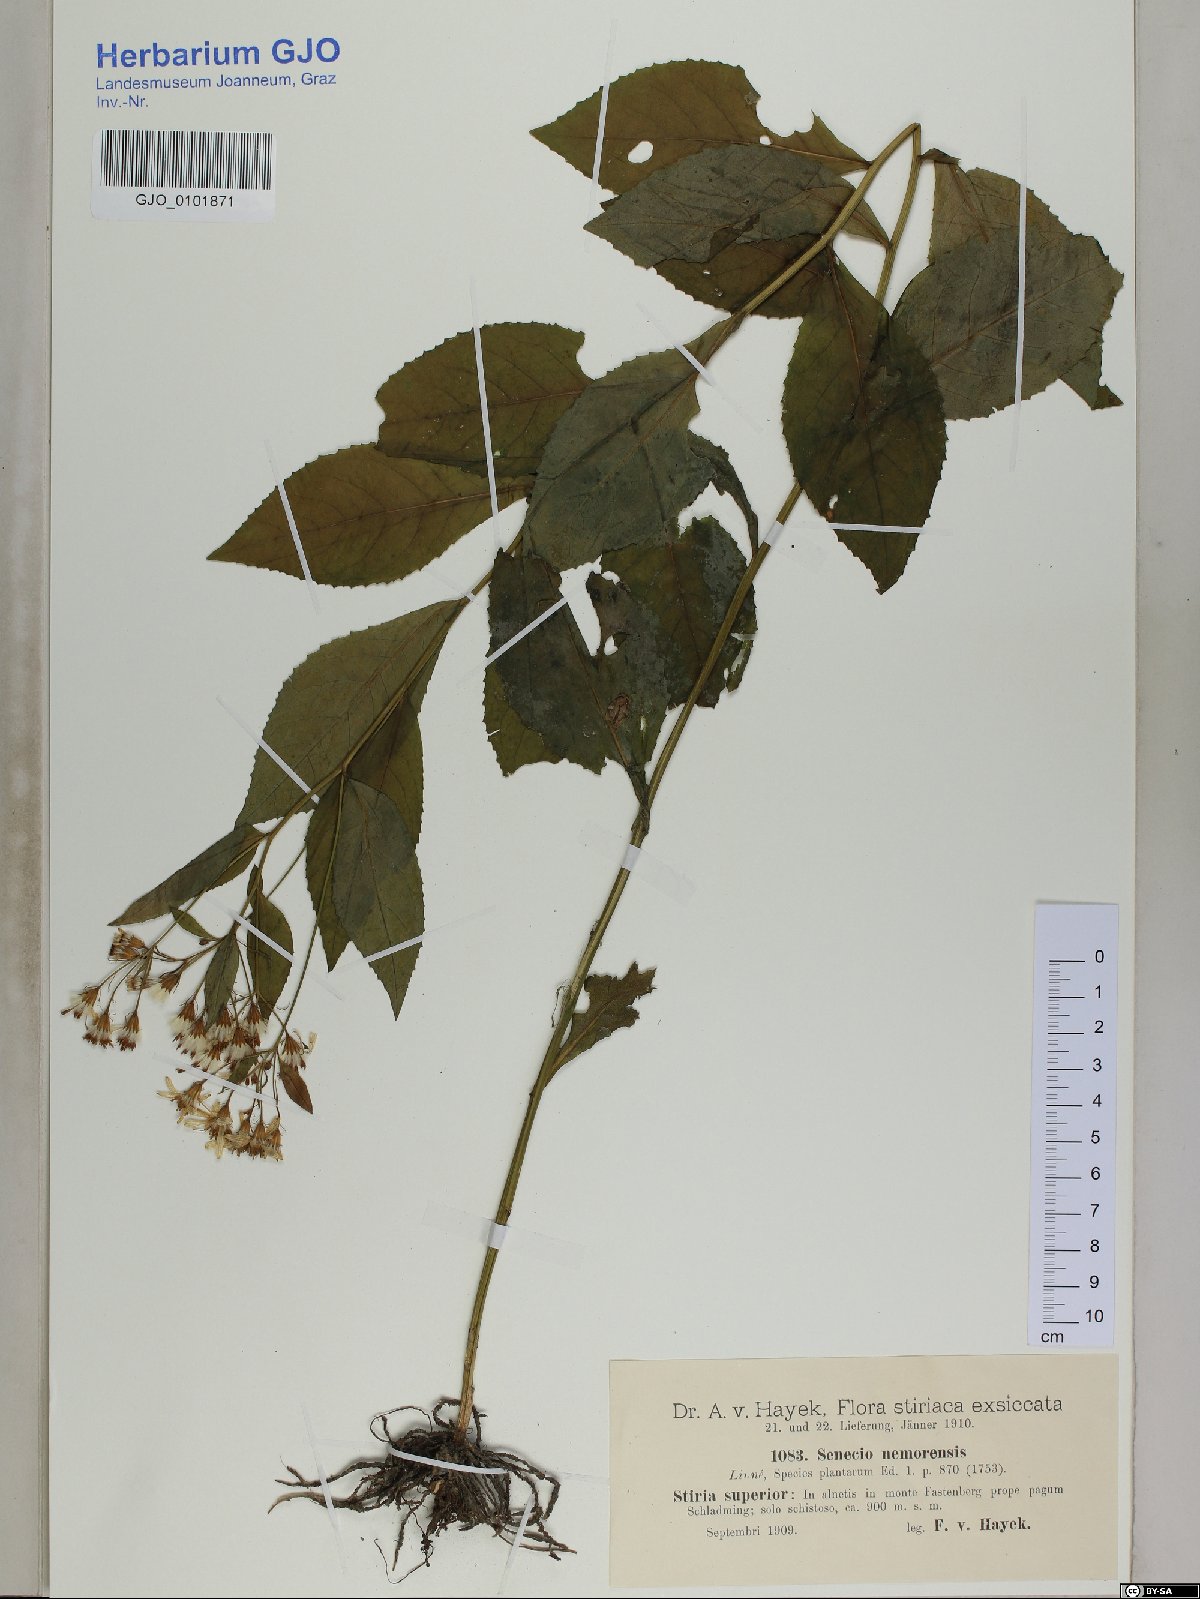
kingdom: Plantae
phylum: Tracheophyta
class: Magnoliopsida
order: Asterales
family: Asteraceae
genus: Senecio
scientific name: Senecio nemorensis
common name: Alpine ragwort
